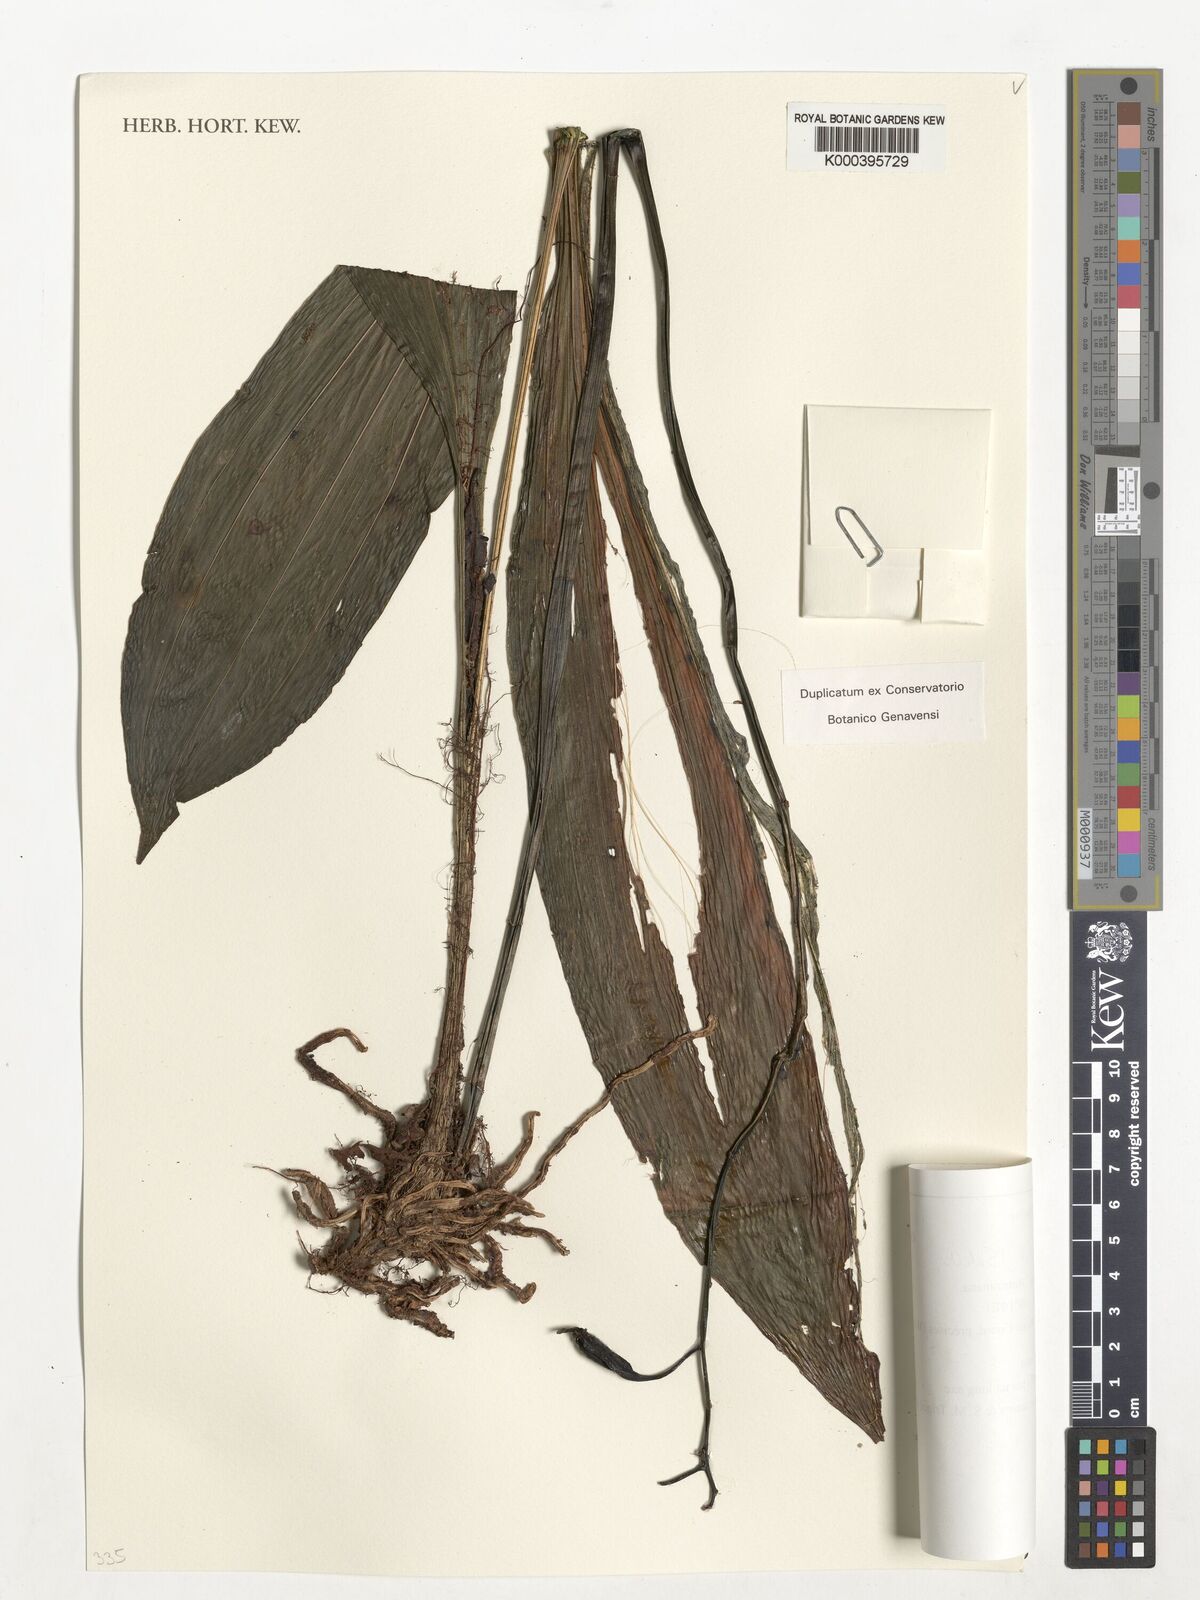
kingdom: Plantae
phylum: Tracheophyta
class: Liliopsida
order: Asparagales
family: Orchidaceae
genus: Calanthe
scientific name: Calanthe humblotii
